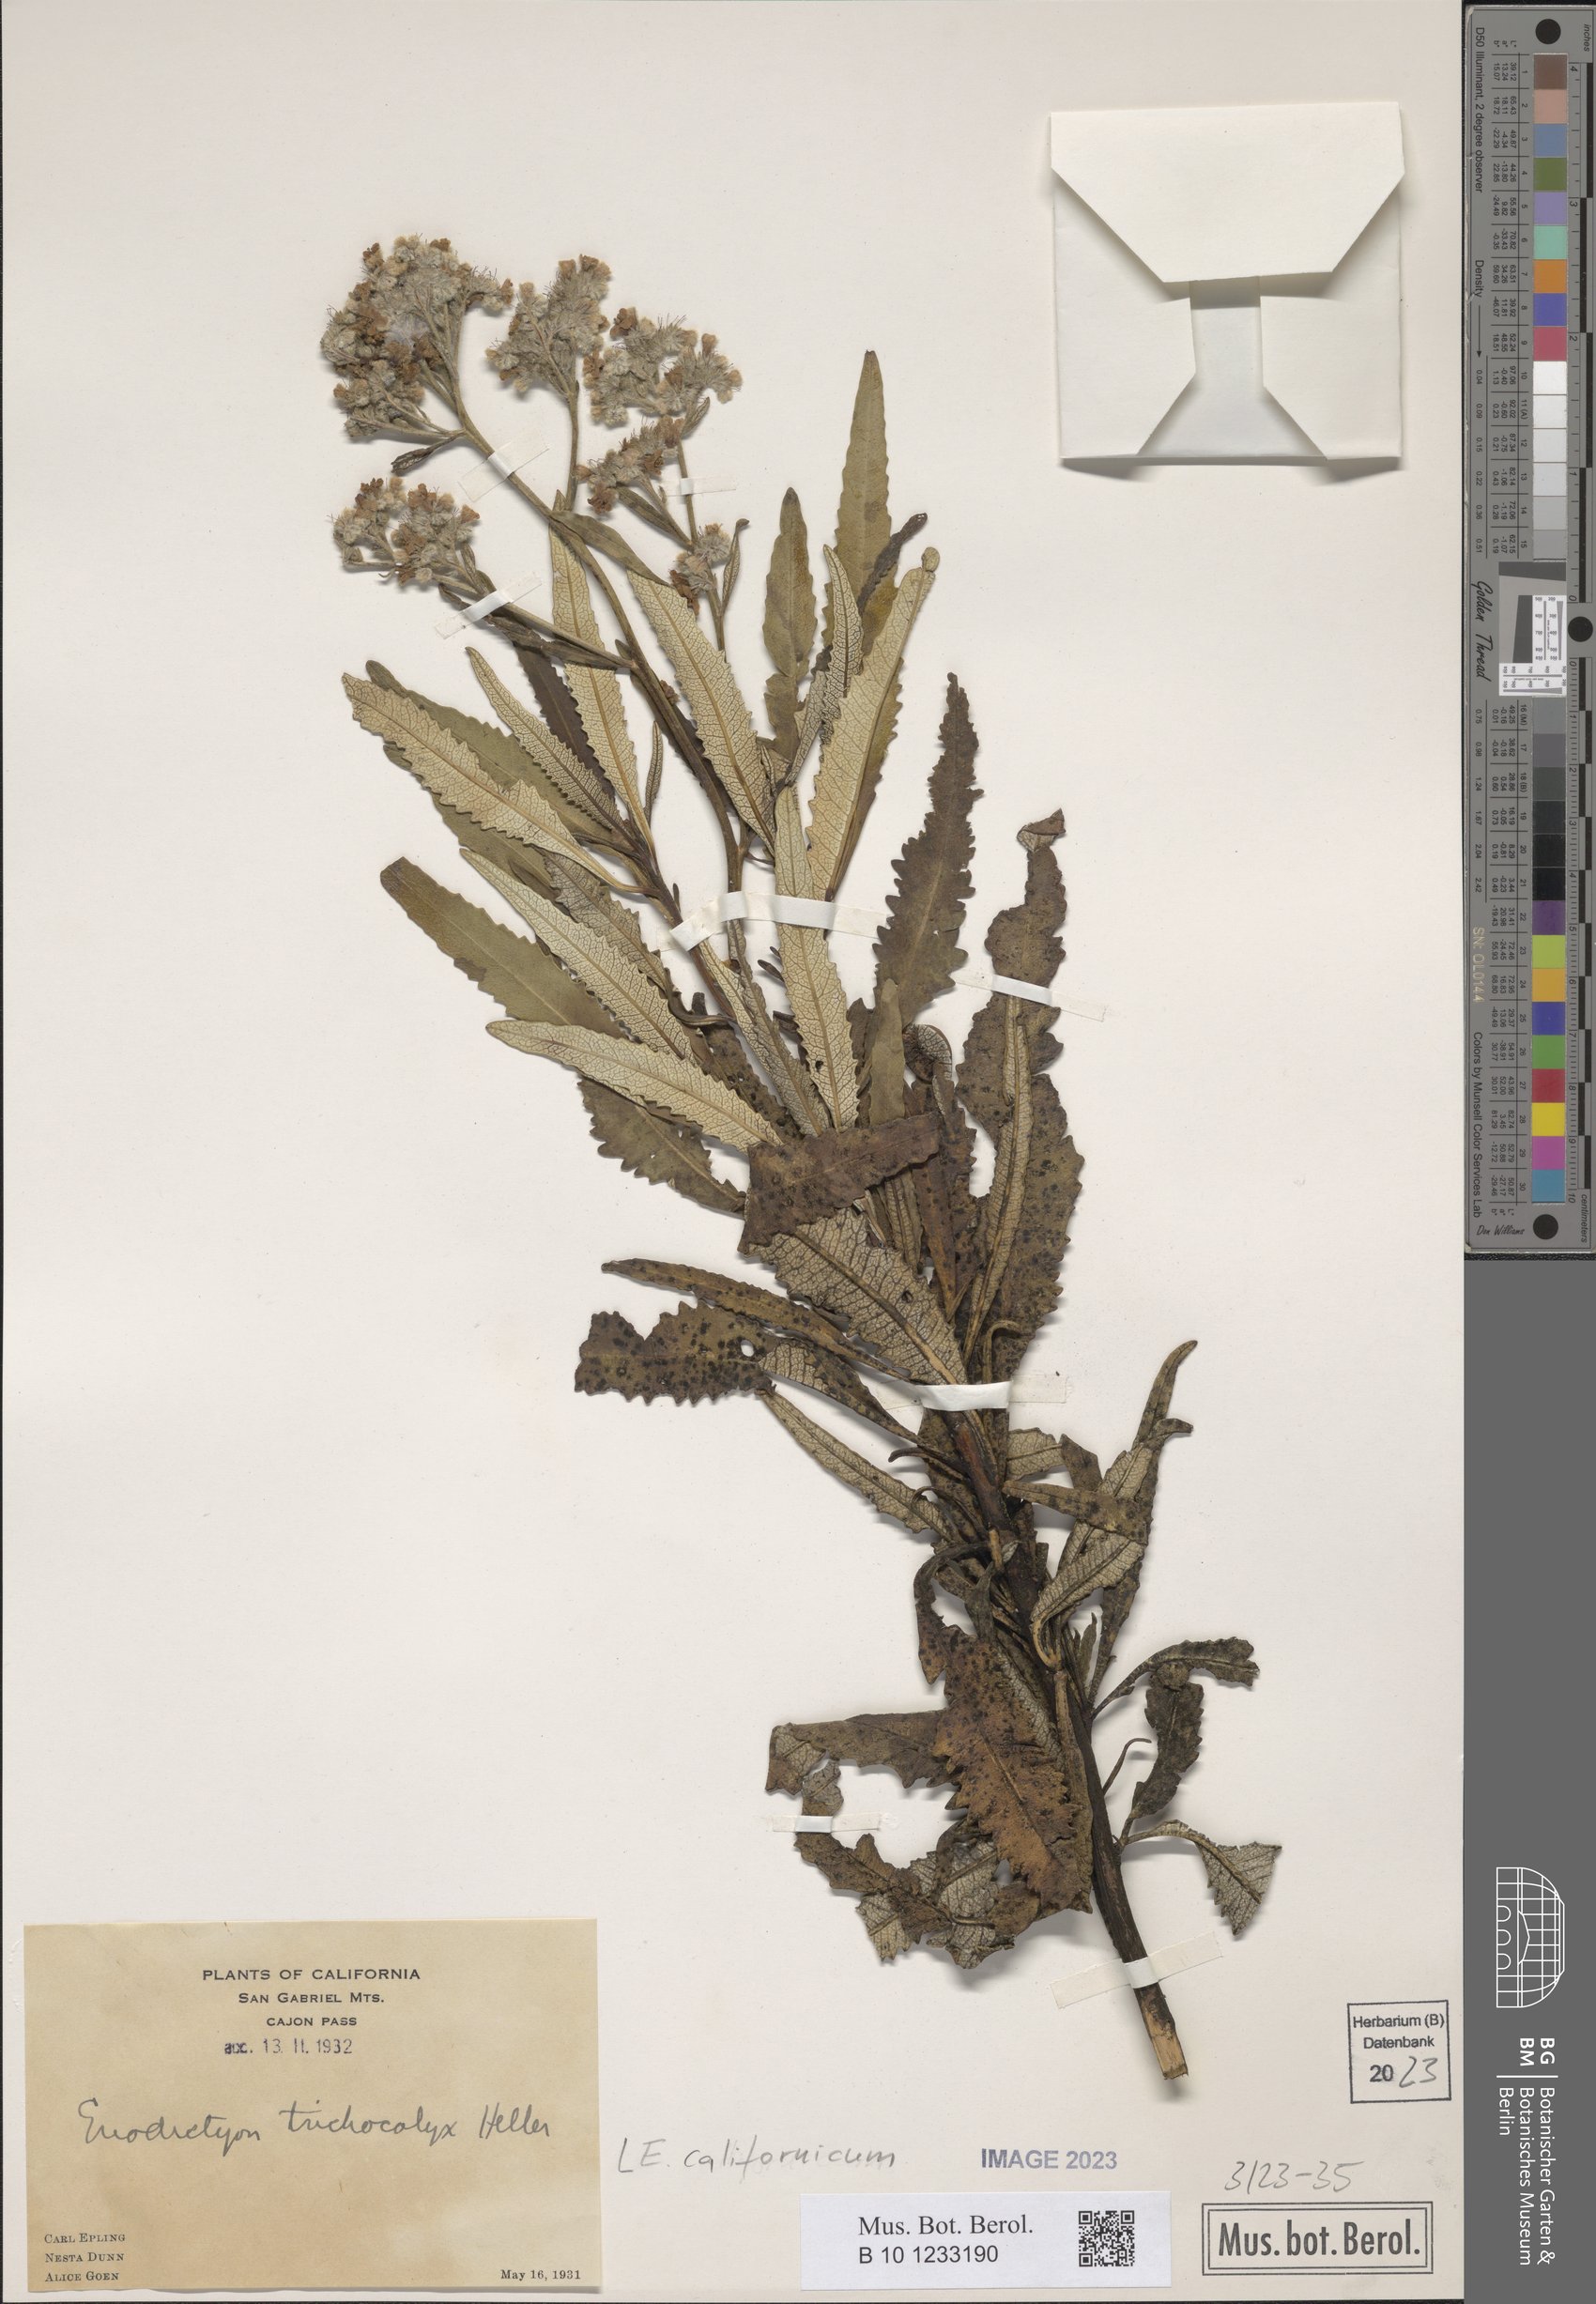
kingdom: Plantae
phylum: Tracheophyta
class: Magnoliopsida
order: Boraginales
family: Namaceae
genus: Eriodictyon
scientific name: Eriodictyon trichocalyx
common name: Hairy yerba-santa
